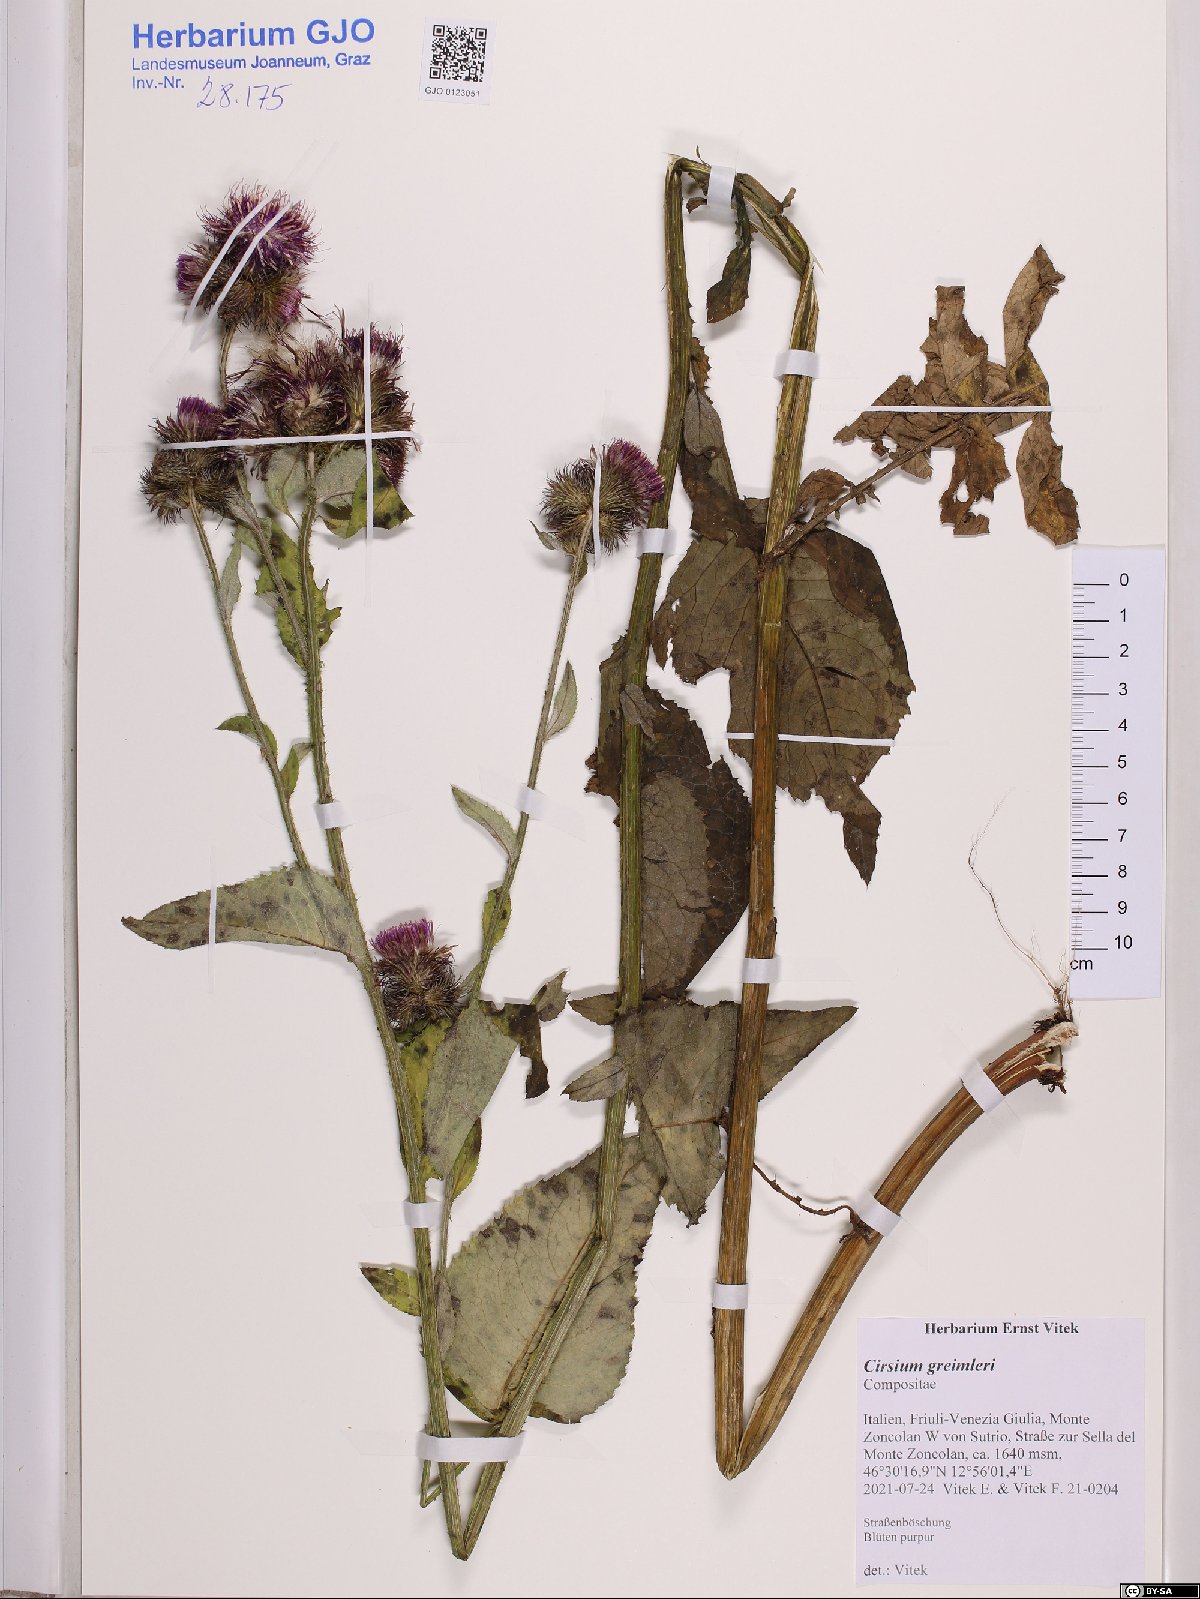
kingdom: Plantae
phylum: Tracheophyta
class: Magnoliopsida
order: Asterales
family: Asteraceae
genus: Cirsium
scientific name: Cirsium greimleri
